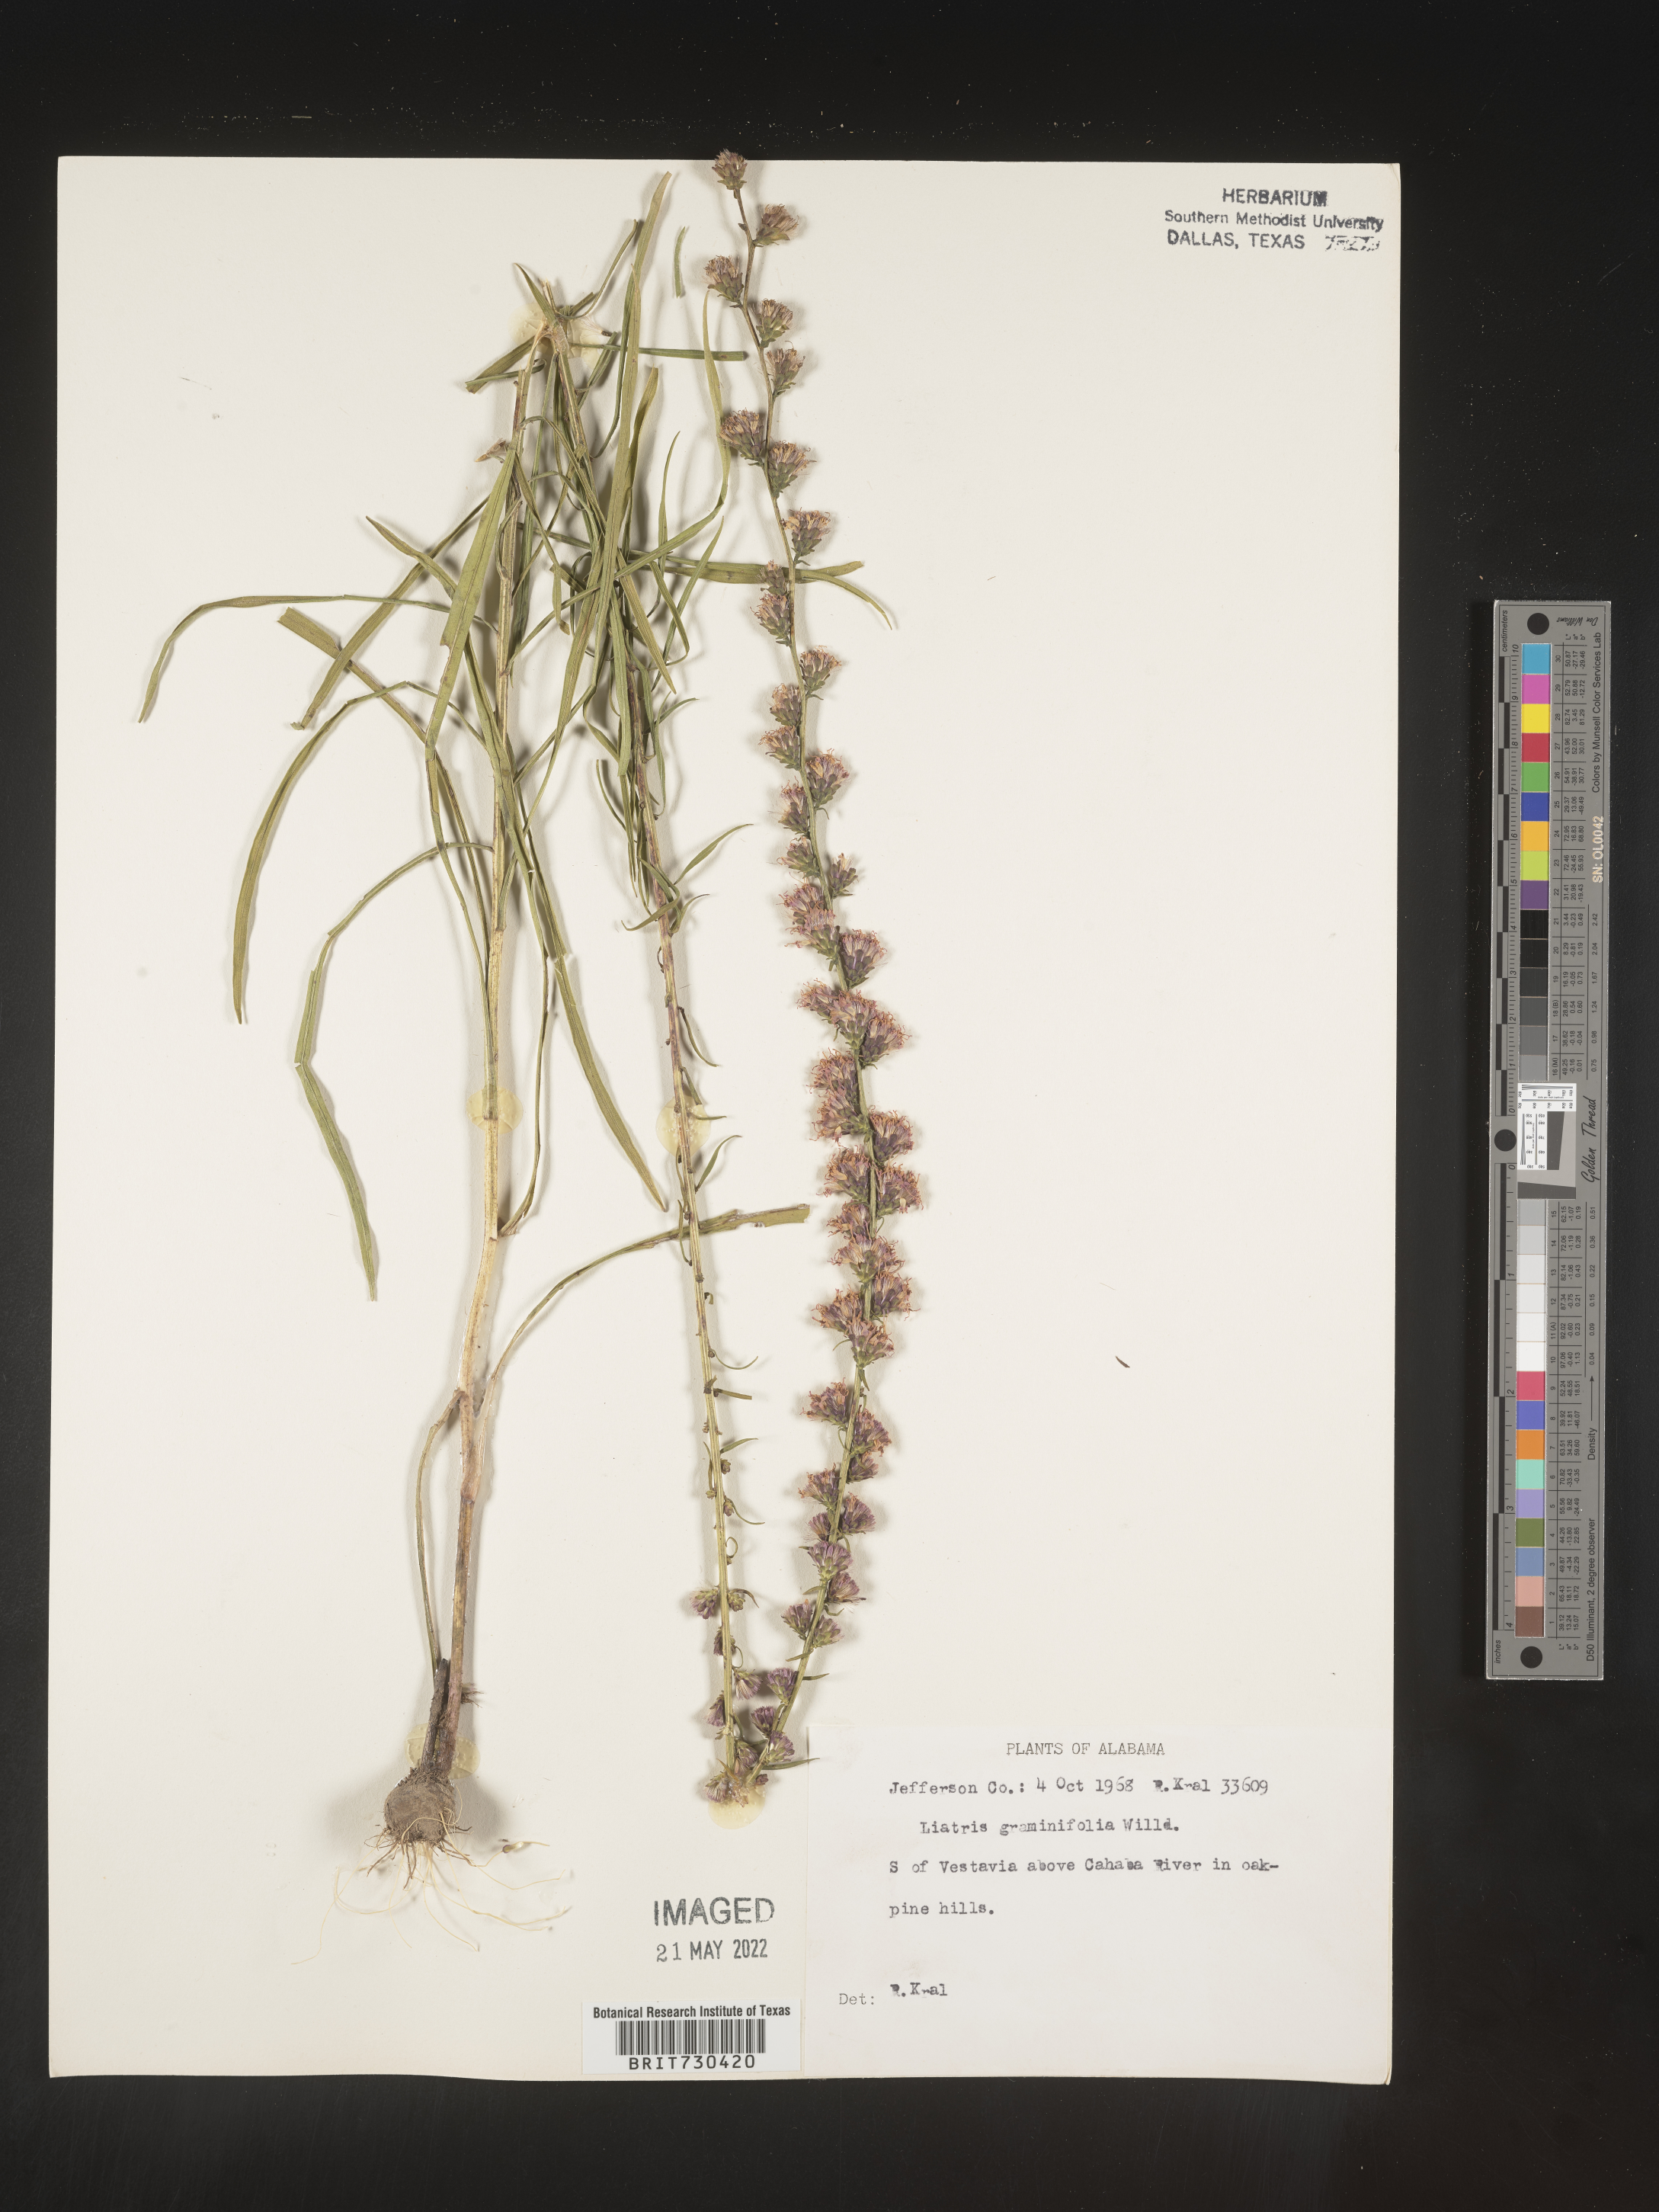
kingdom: Plantae
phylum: Tracheophyta
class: Magnoliopsida
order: Asterales
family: Asteraceae
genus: Liatris
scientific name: Liatris elegantula
